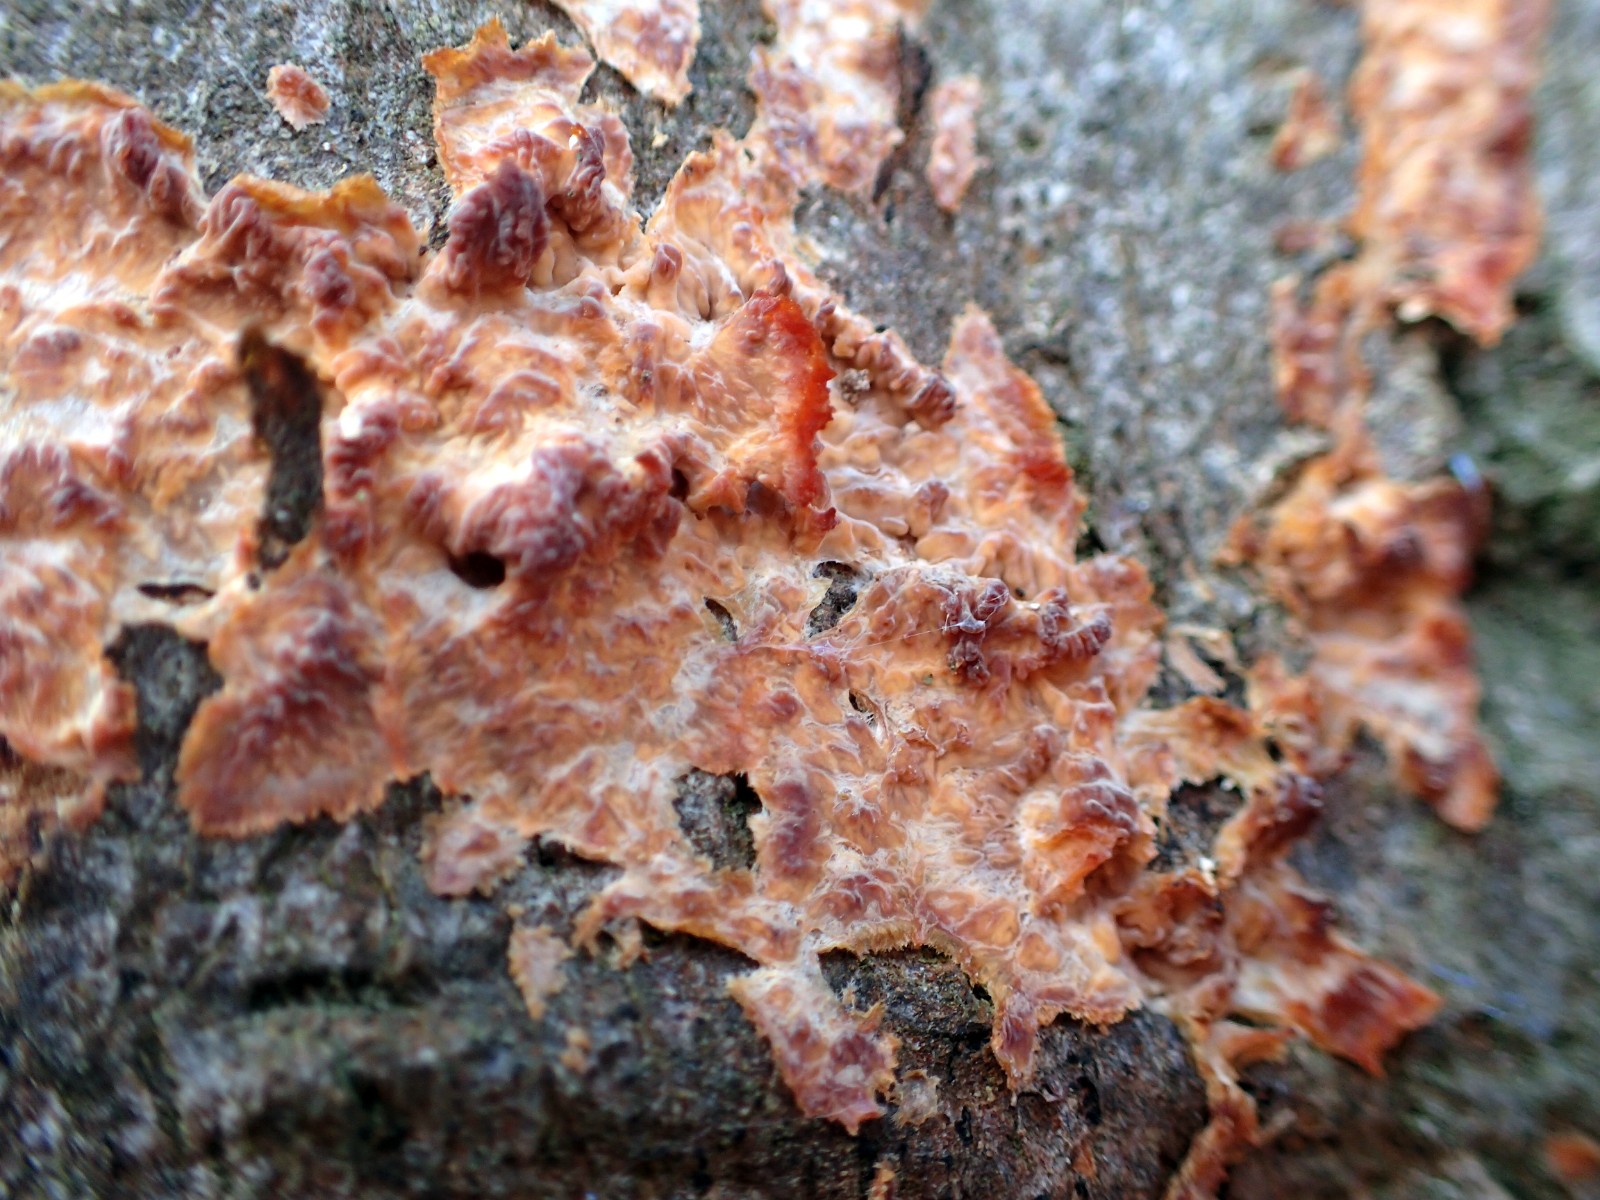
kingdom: Fungi
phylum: Basidiomycota
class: Agaricomycetes
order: Polyporales
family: Meruliaceae
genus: Phlebia
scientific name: Phlebia radiata
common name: stråle-åresvamp
